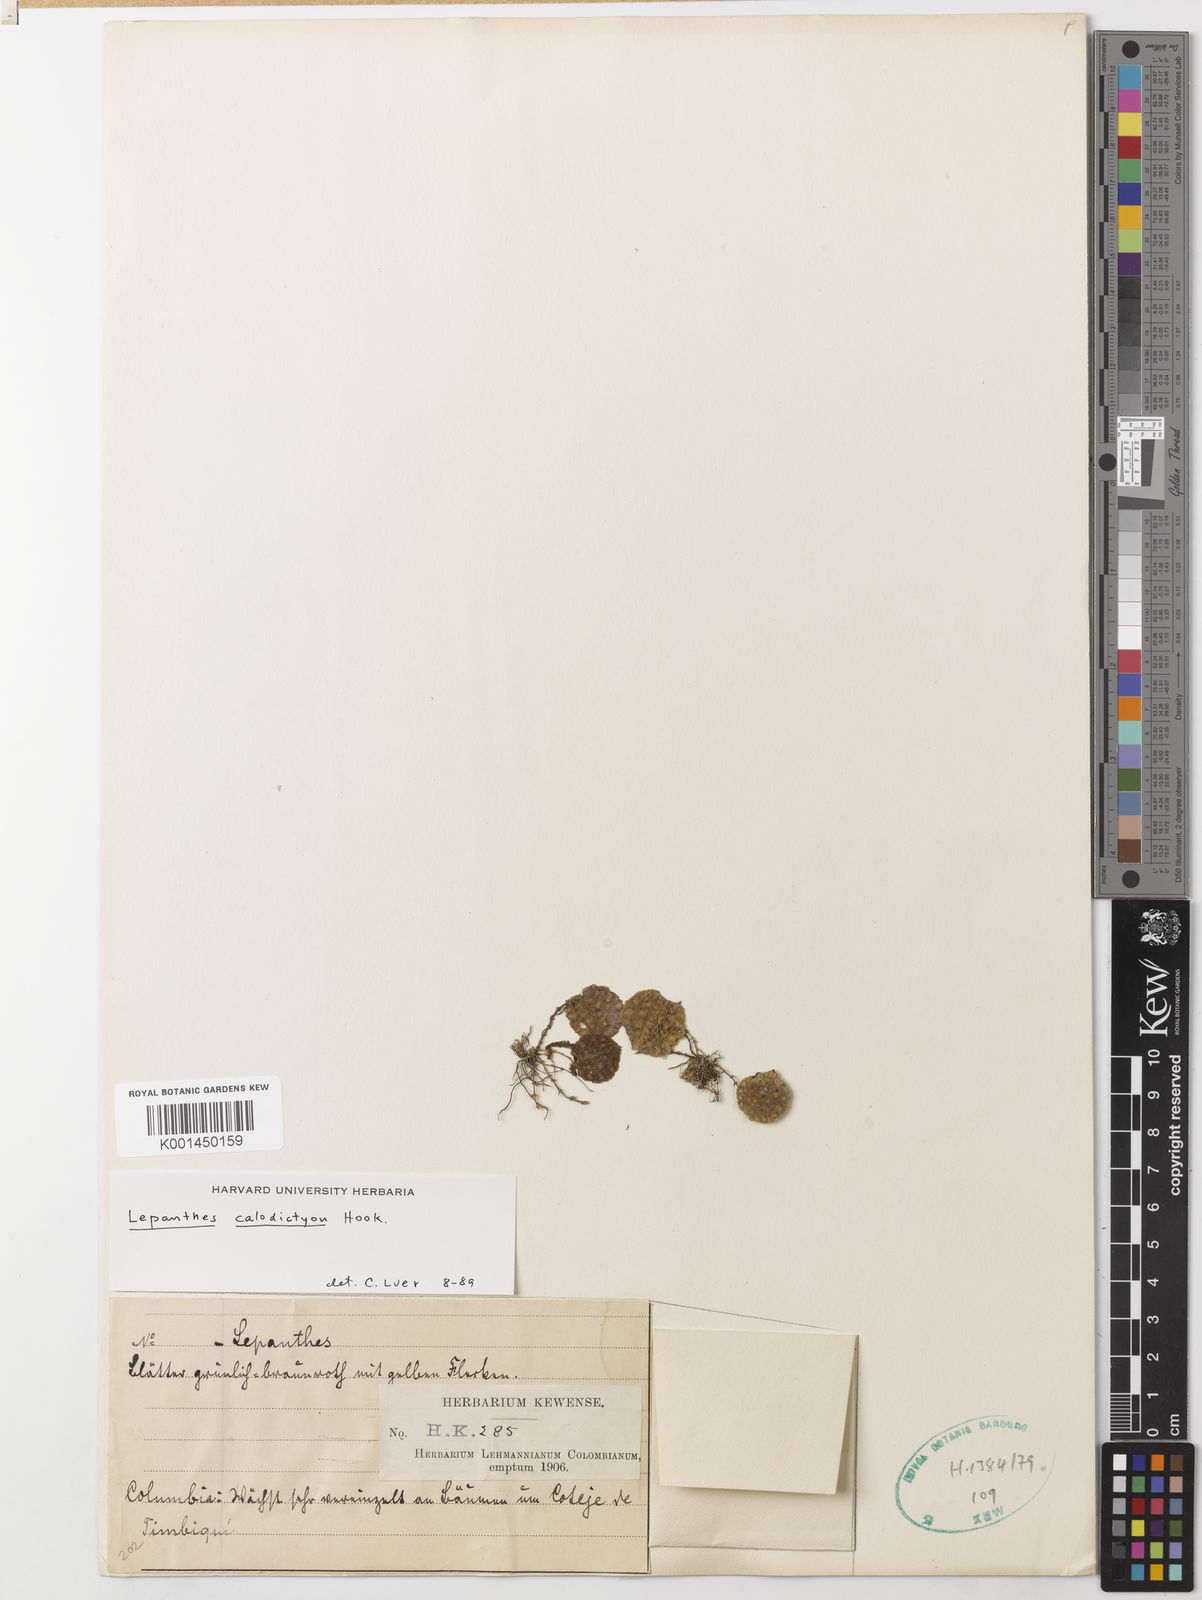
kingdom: Plantae
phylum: Tracheophyta
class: Liliopsida
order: Asparagales
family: Orchidaceae
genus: Lepanthes
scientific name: Lepanthes calodictyon
